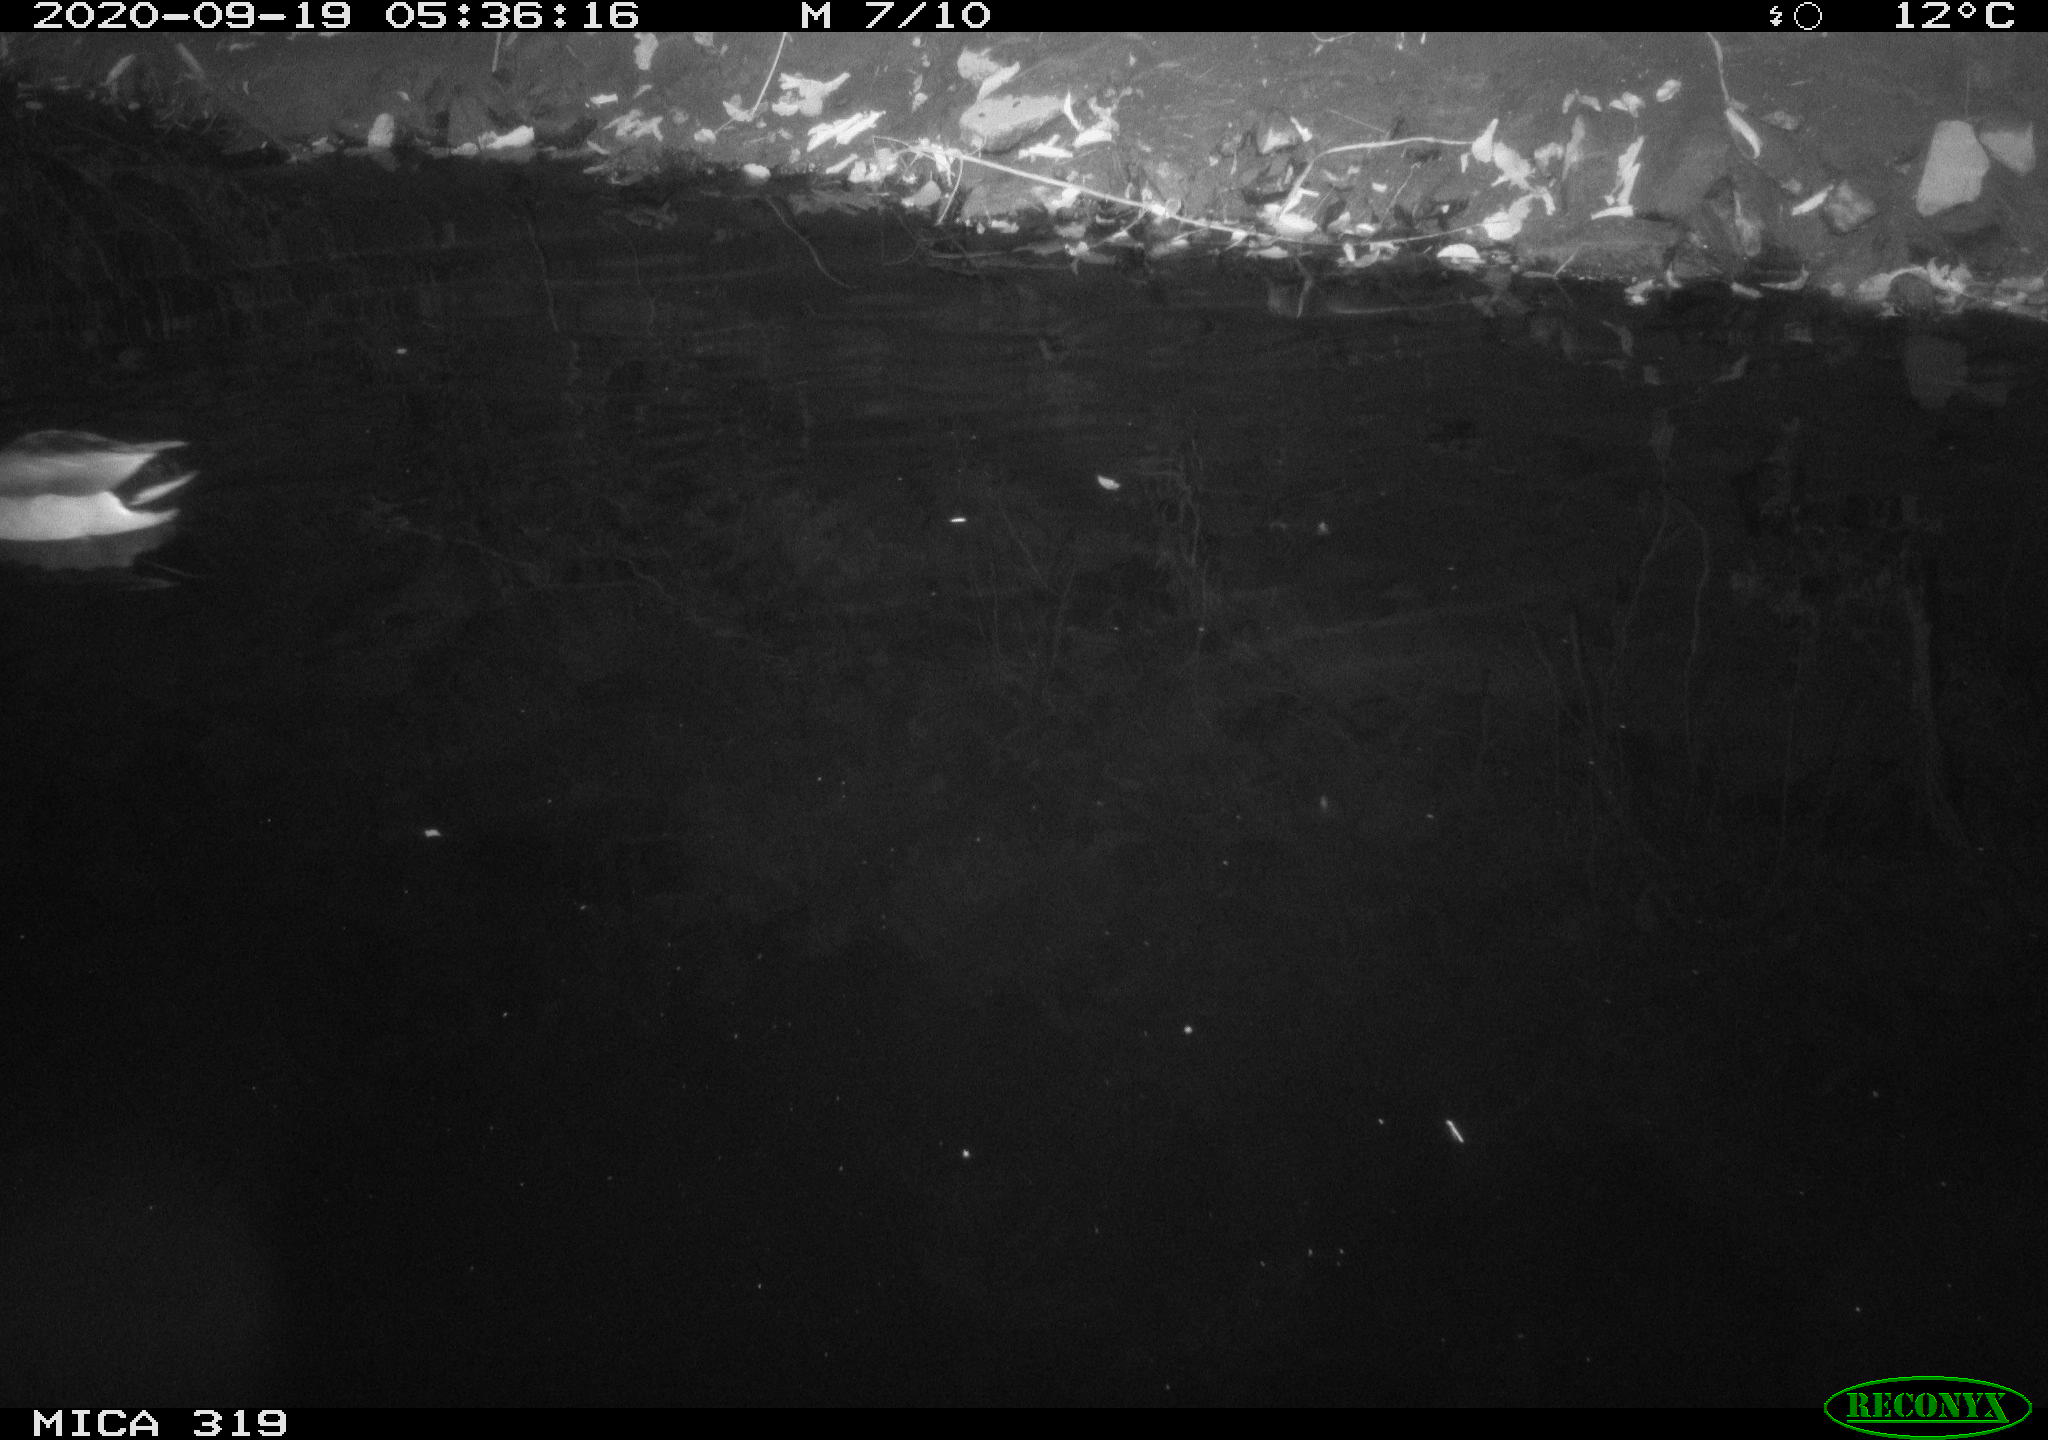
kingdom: Animalia
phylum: Chordata
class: Aves
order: Anseriformes
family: Anatidae
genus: Anas
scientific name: Anas platyrhynchos
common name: Mallard
